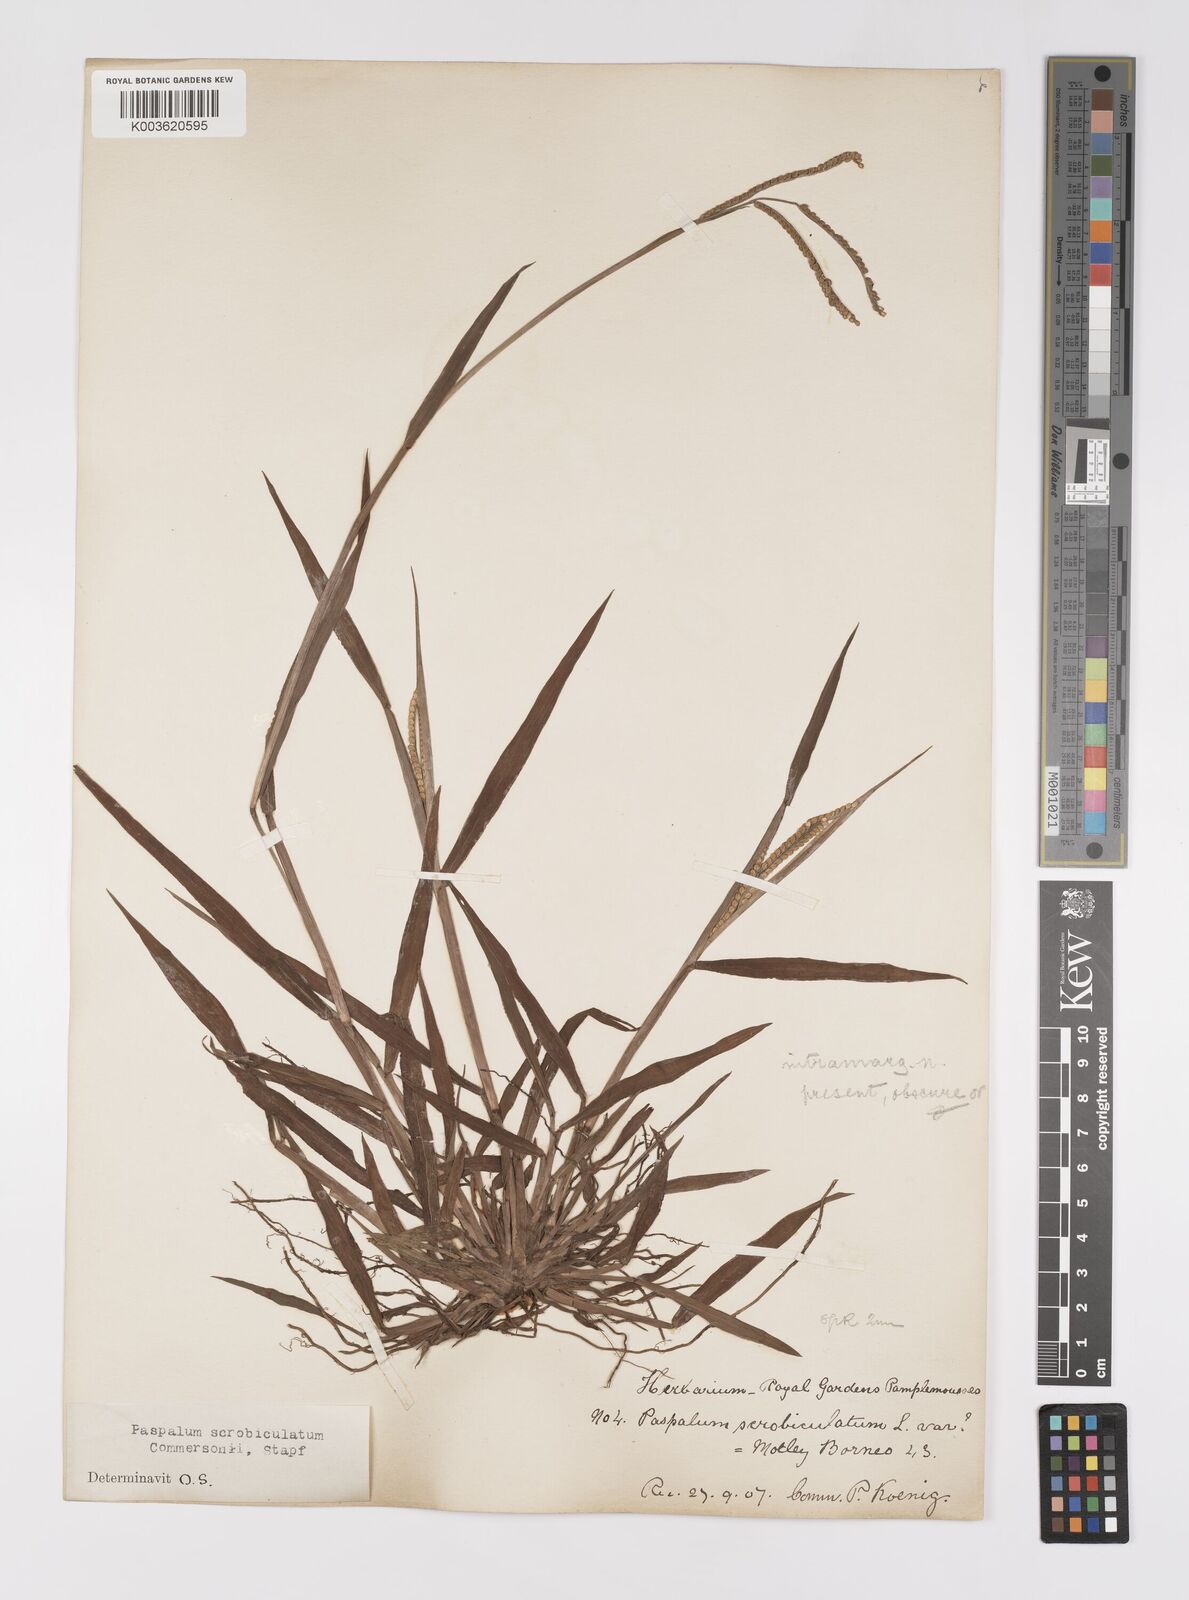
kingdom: Plantae
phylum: Tracheophyta
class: Liliopsida
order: Poales
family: Poaceae
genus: Paspalum
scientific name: Paspalum scrobiculatum
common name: Kodo millet
